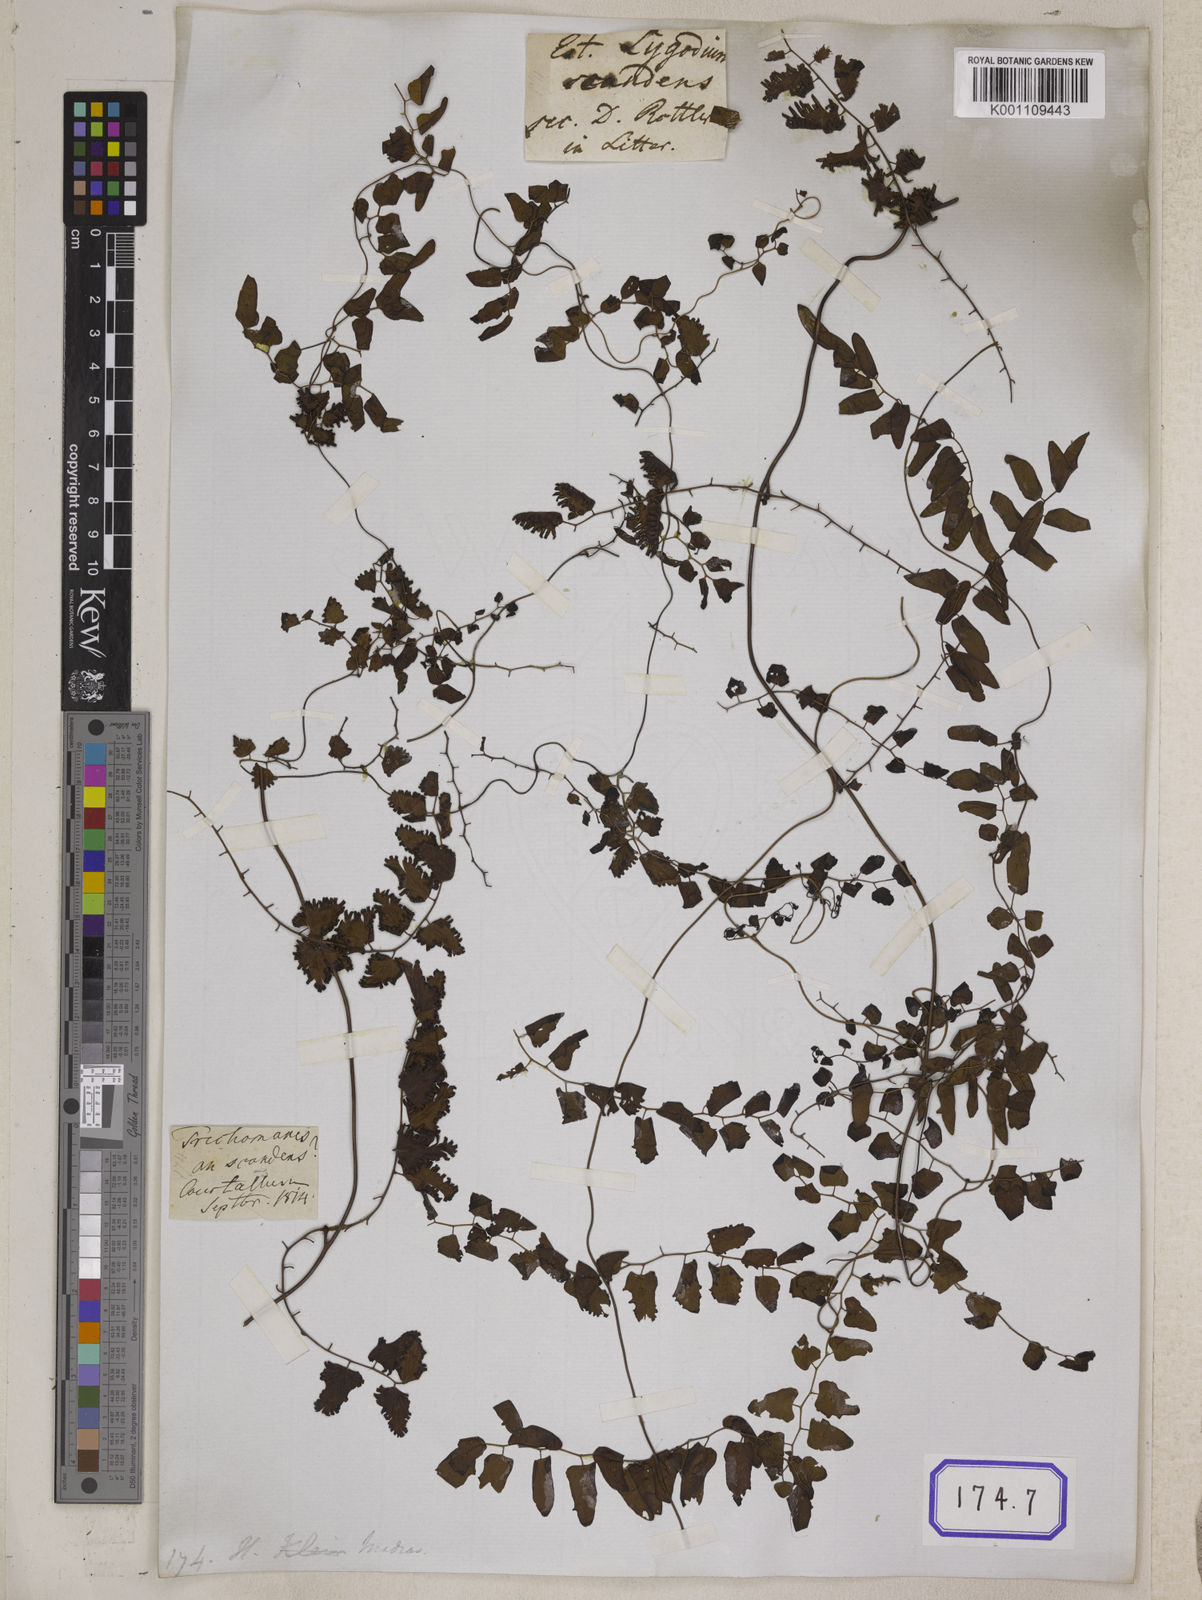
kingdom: Plantae
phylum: Tracheophyta
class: Polypodiopsida
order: Schizaeales
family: Lygodiaceae
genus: Lygodium
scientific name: Lygodium
